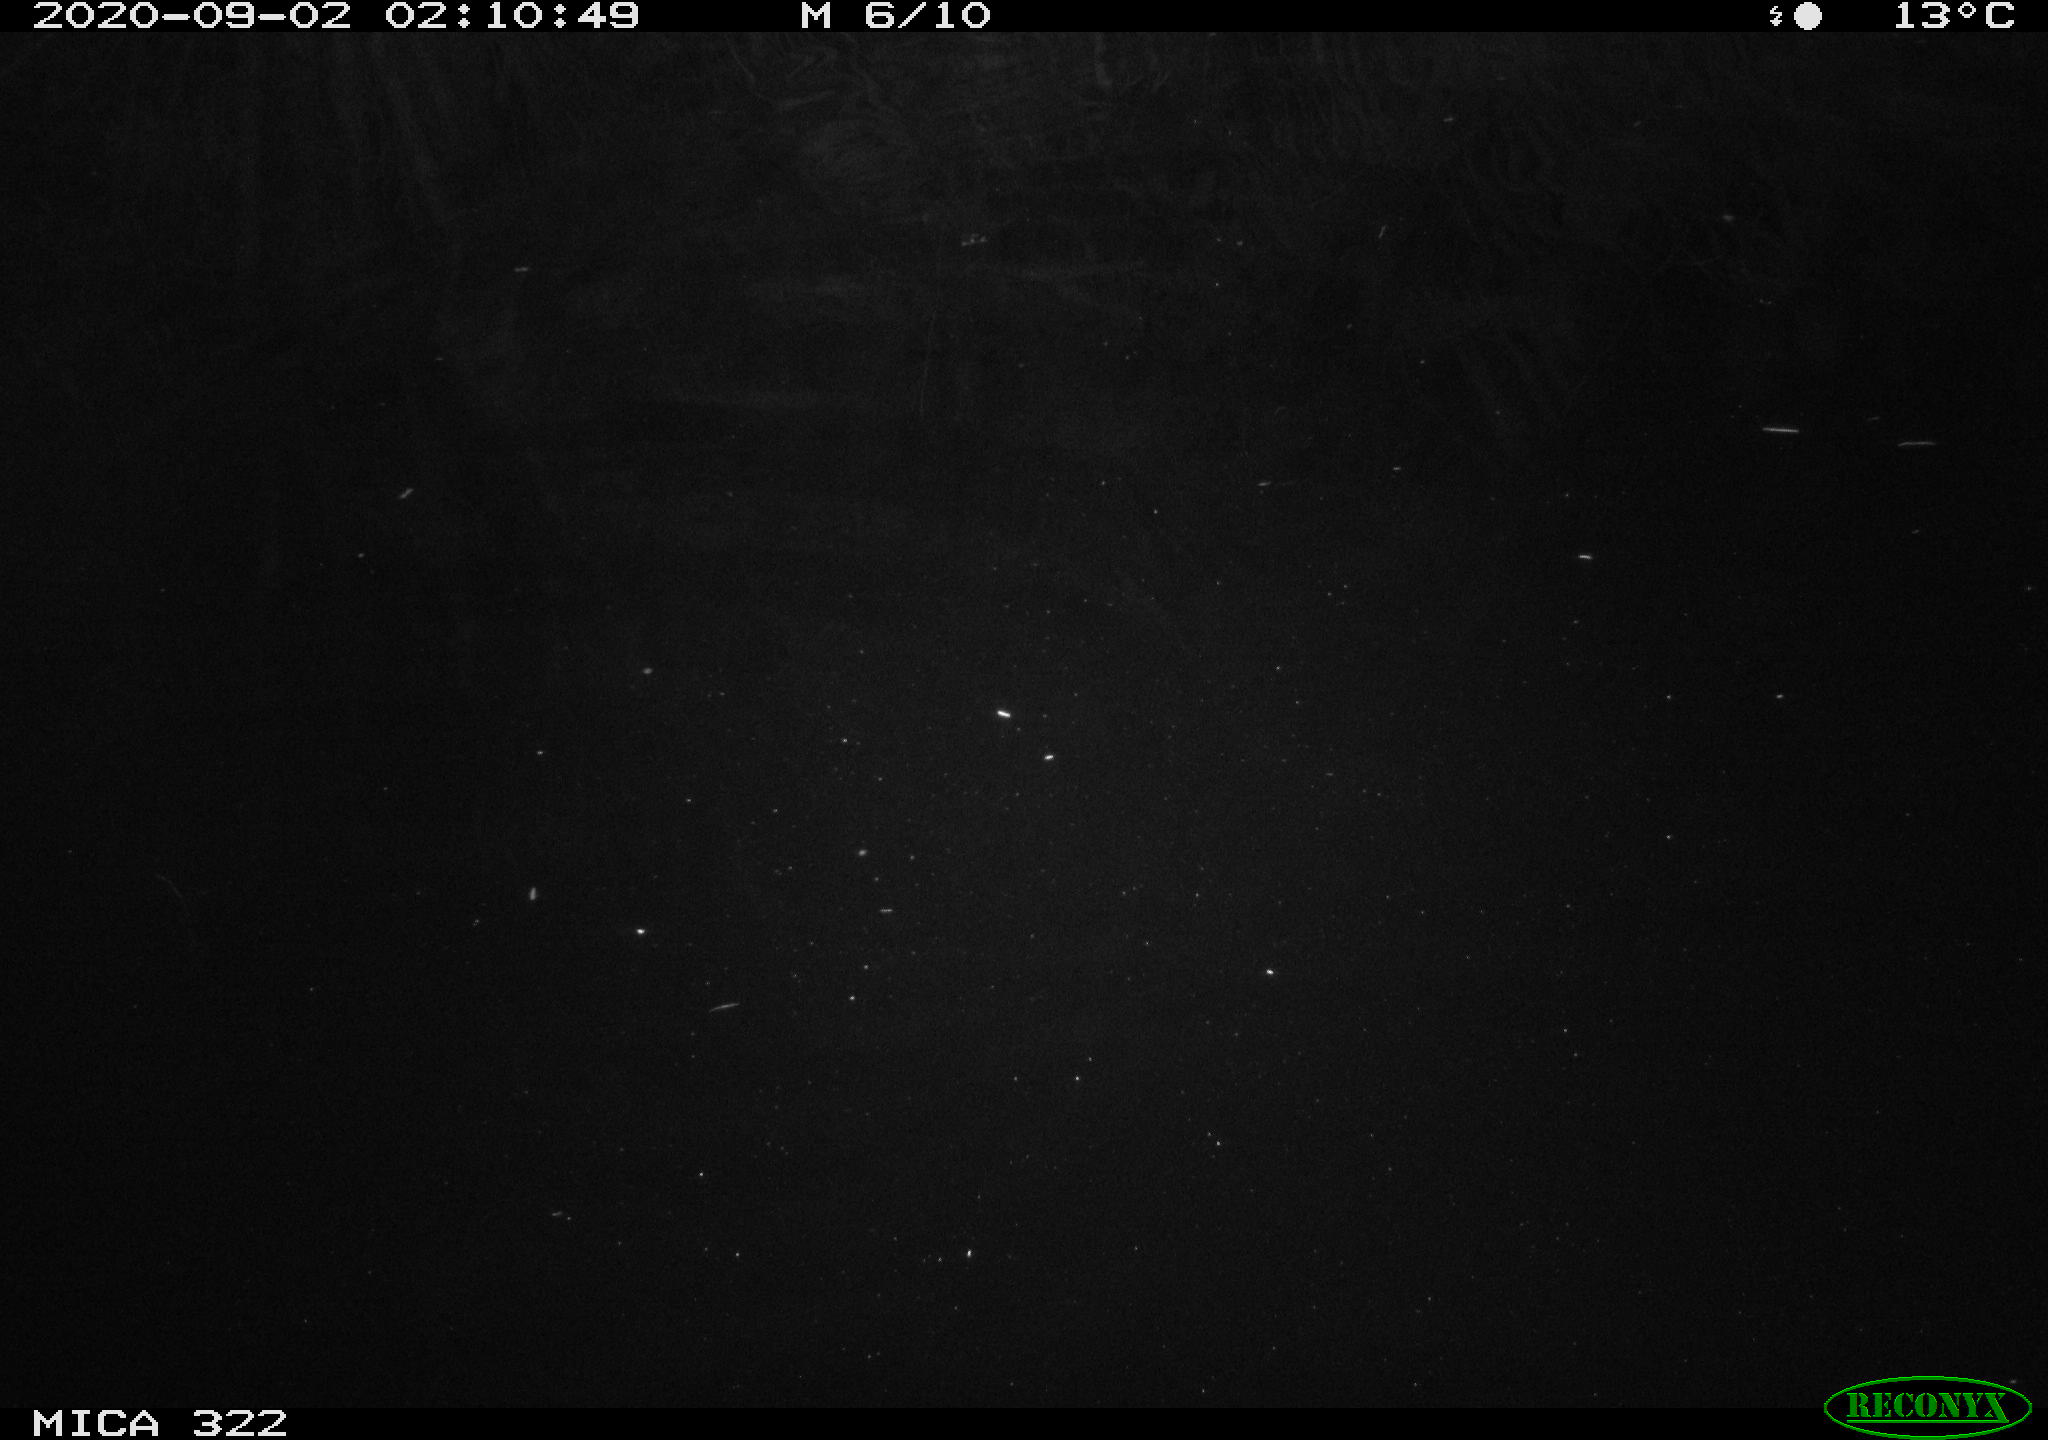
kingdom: Animalia
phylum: Chordata
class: Mammalia
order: Rodentia
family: Muridae
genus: Rattus
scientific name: Rattus norvegicus
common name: Brown rat
